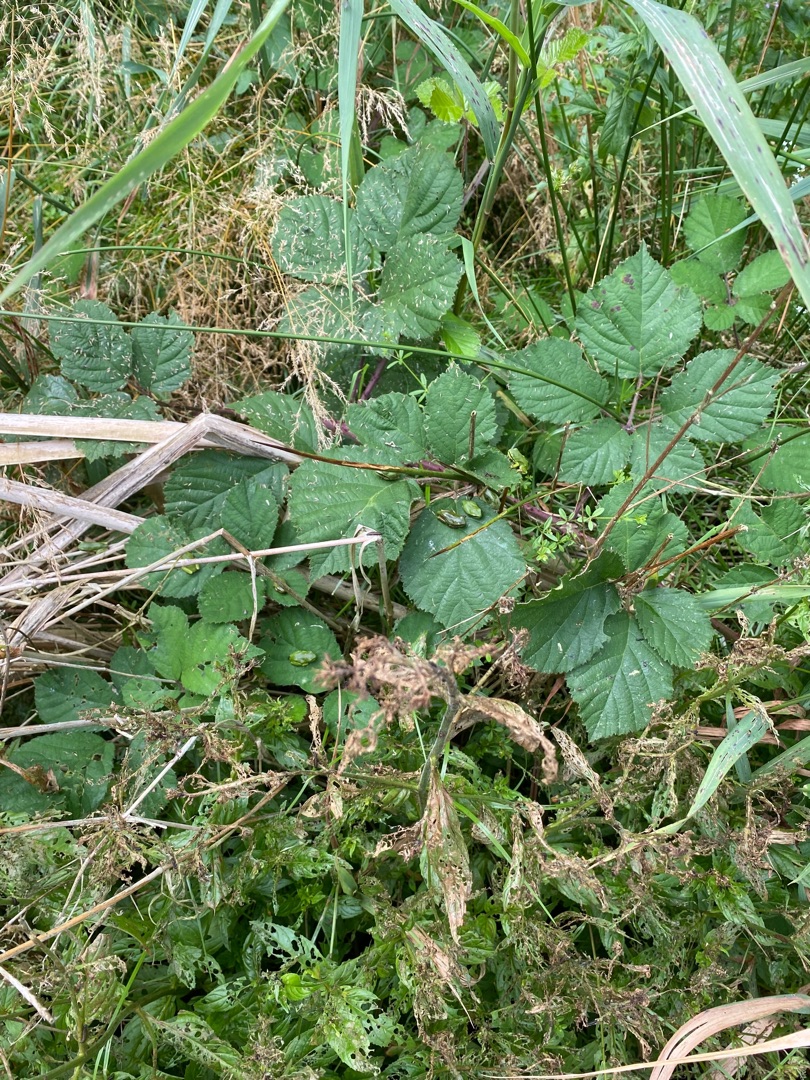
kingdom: Animalia
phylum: Chordata
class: Amphibia
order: Anura
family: Hylidae
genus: Hyla
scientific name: Hyla arborea
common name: Løvfrø
